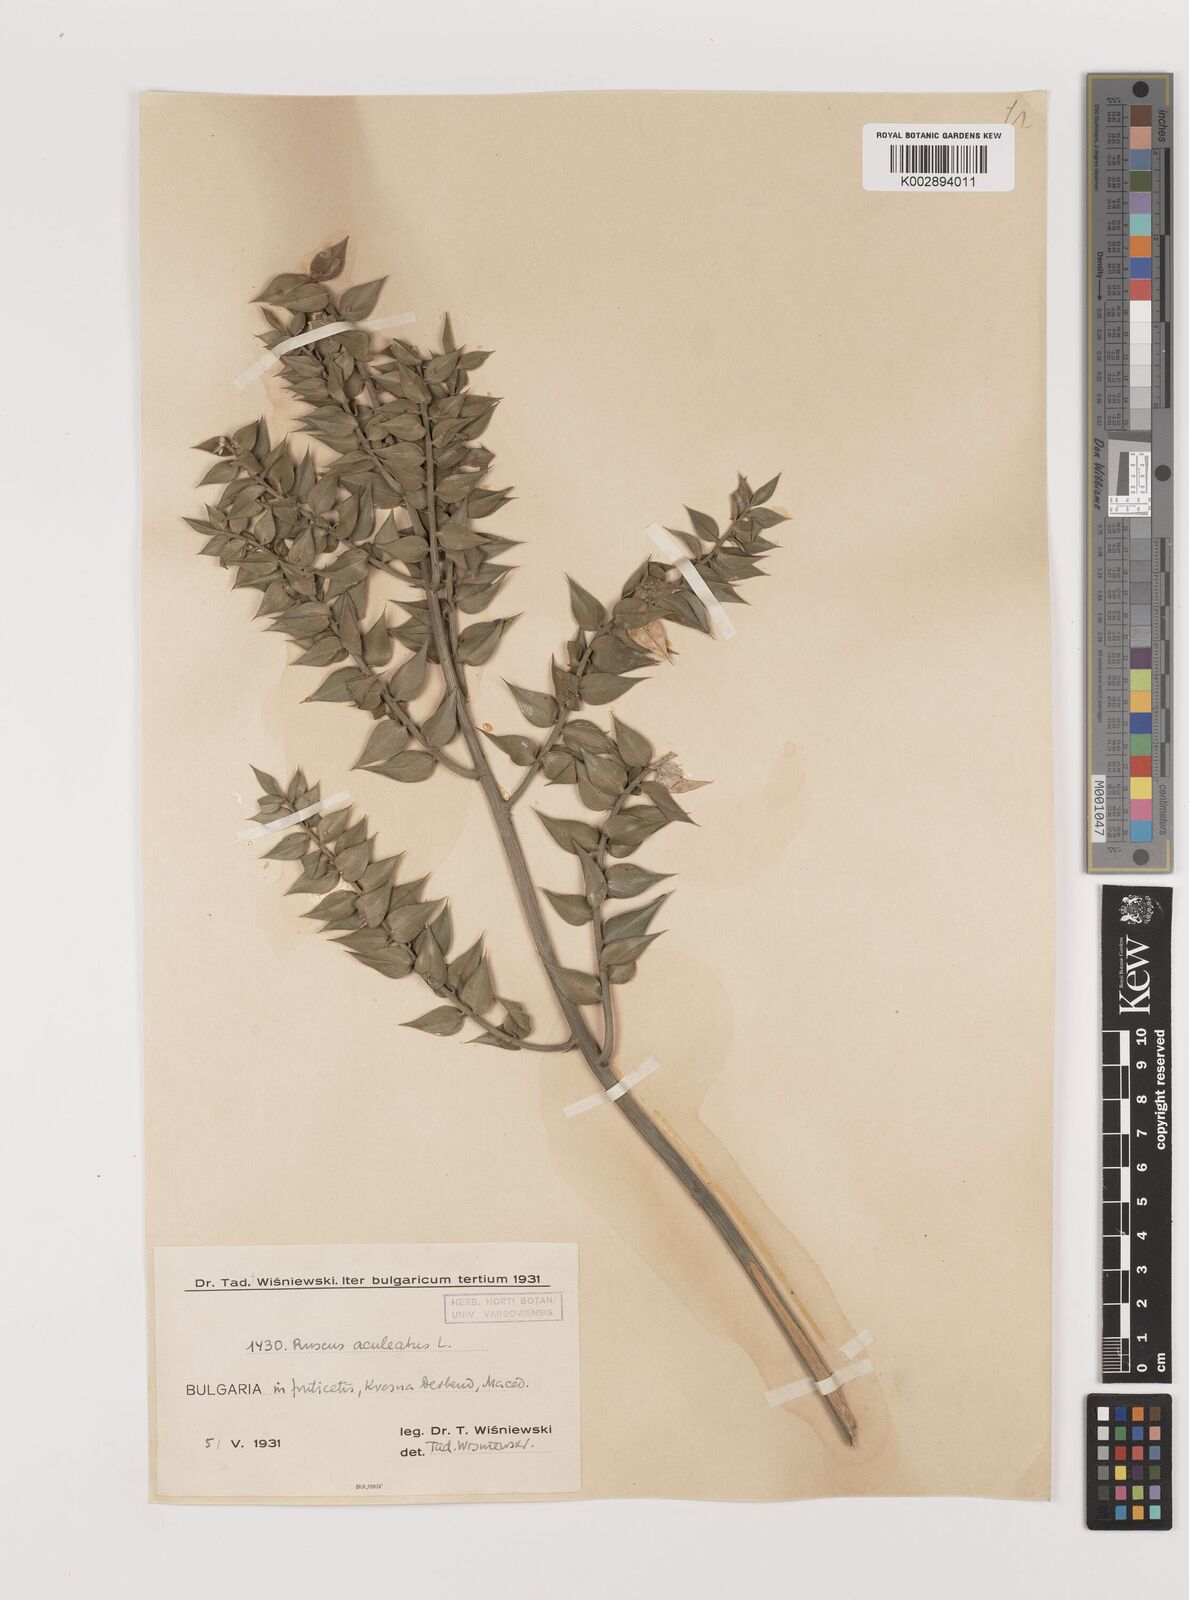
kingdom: Plantae
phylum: Tracheophyta
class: Liliopsida
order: Asparagales
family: Asparagaceae
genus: Ruscus
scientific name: Ruscus aculeatus
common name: Butcher's-broom
